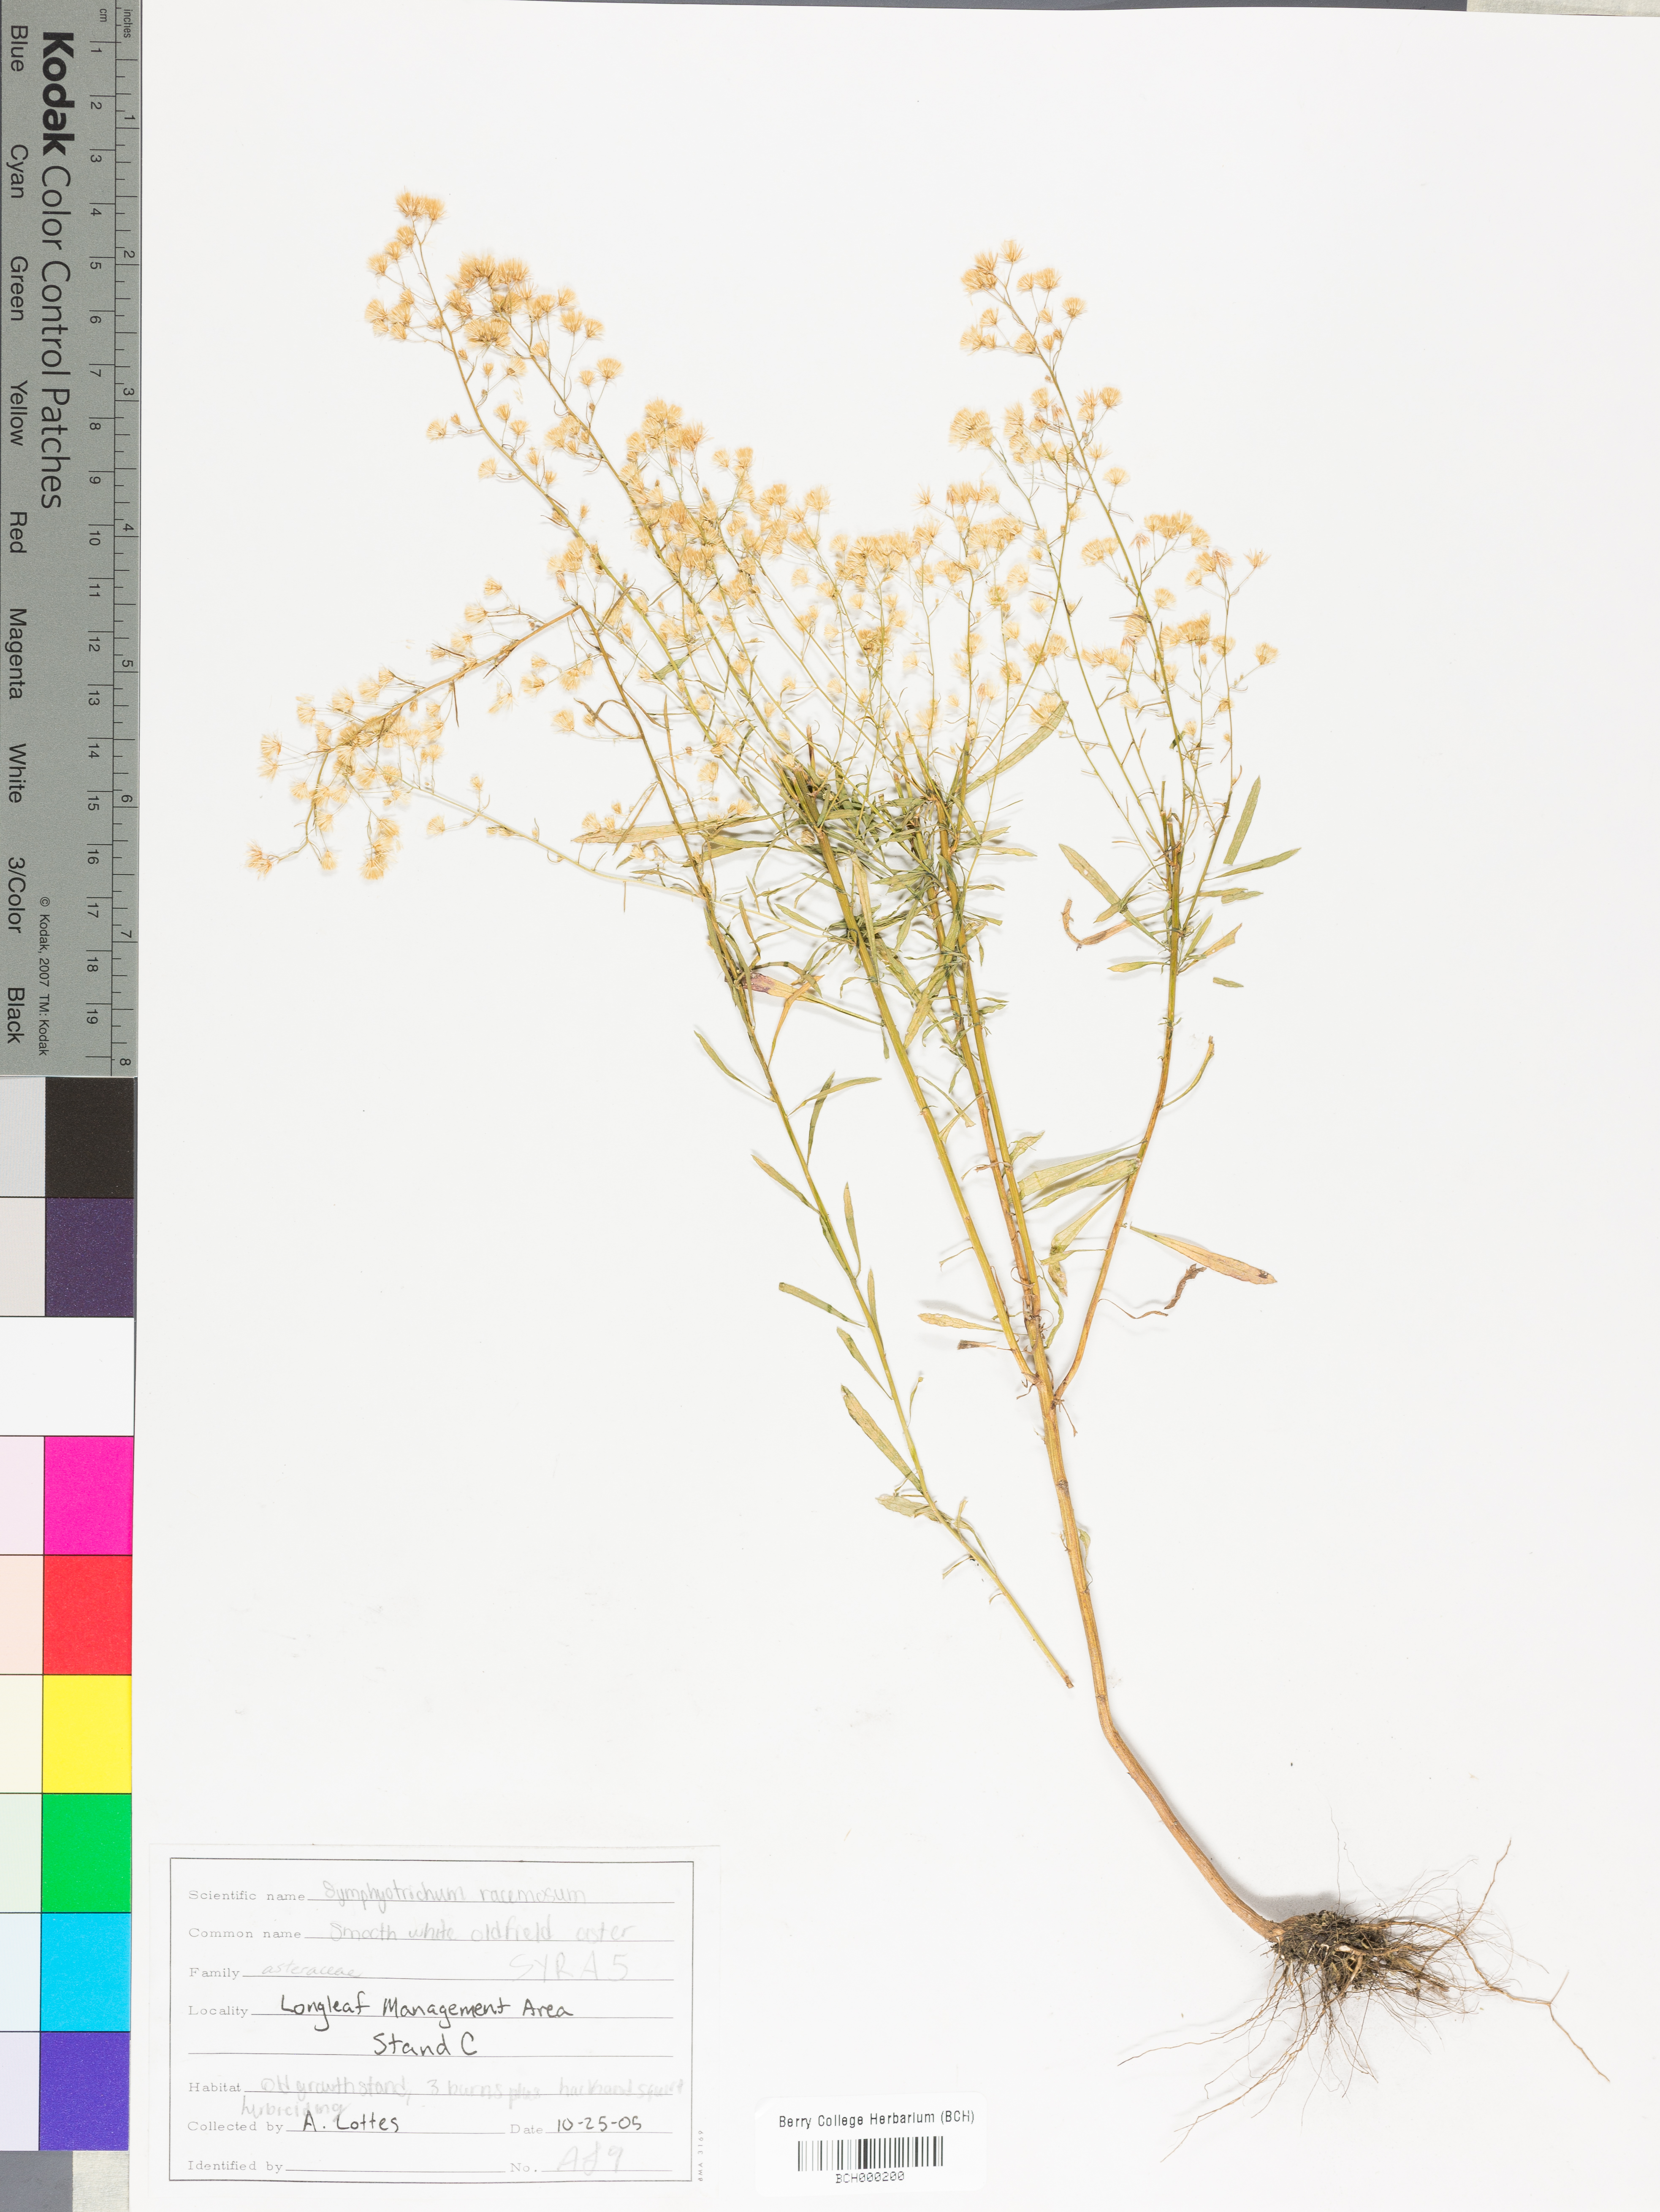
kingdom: Plantae
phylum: Tracheophyta
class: Magnoliopsida
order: Asterales
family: Asteraceae
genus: Symphyotrichum
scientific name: Symphyotrichum racemosum
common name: Small white aster
